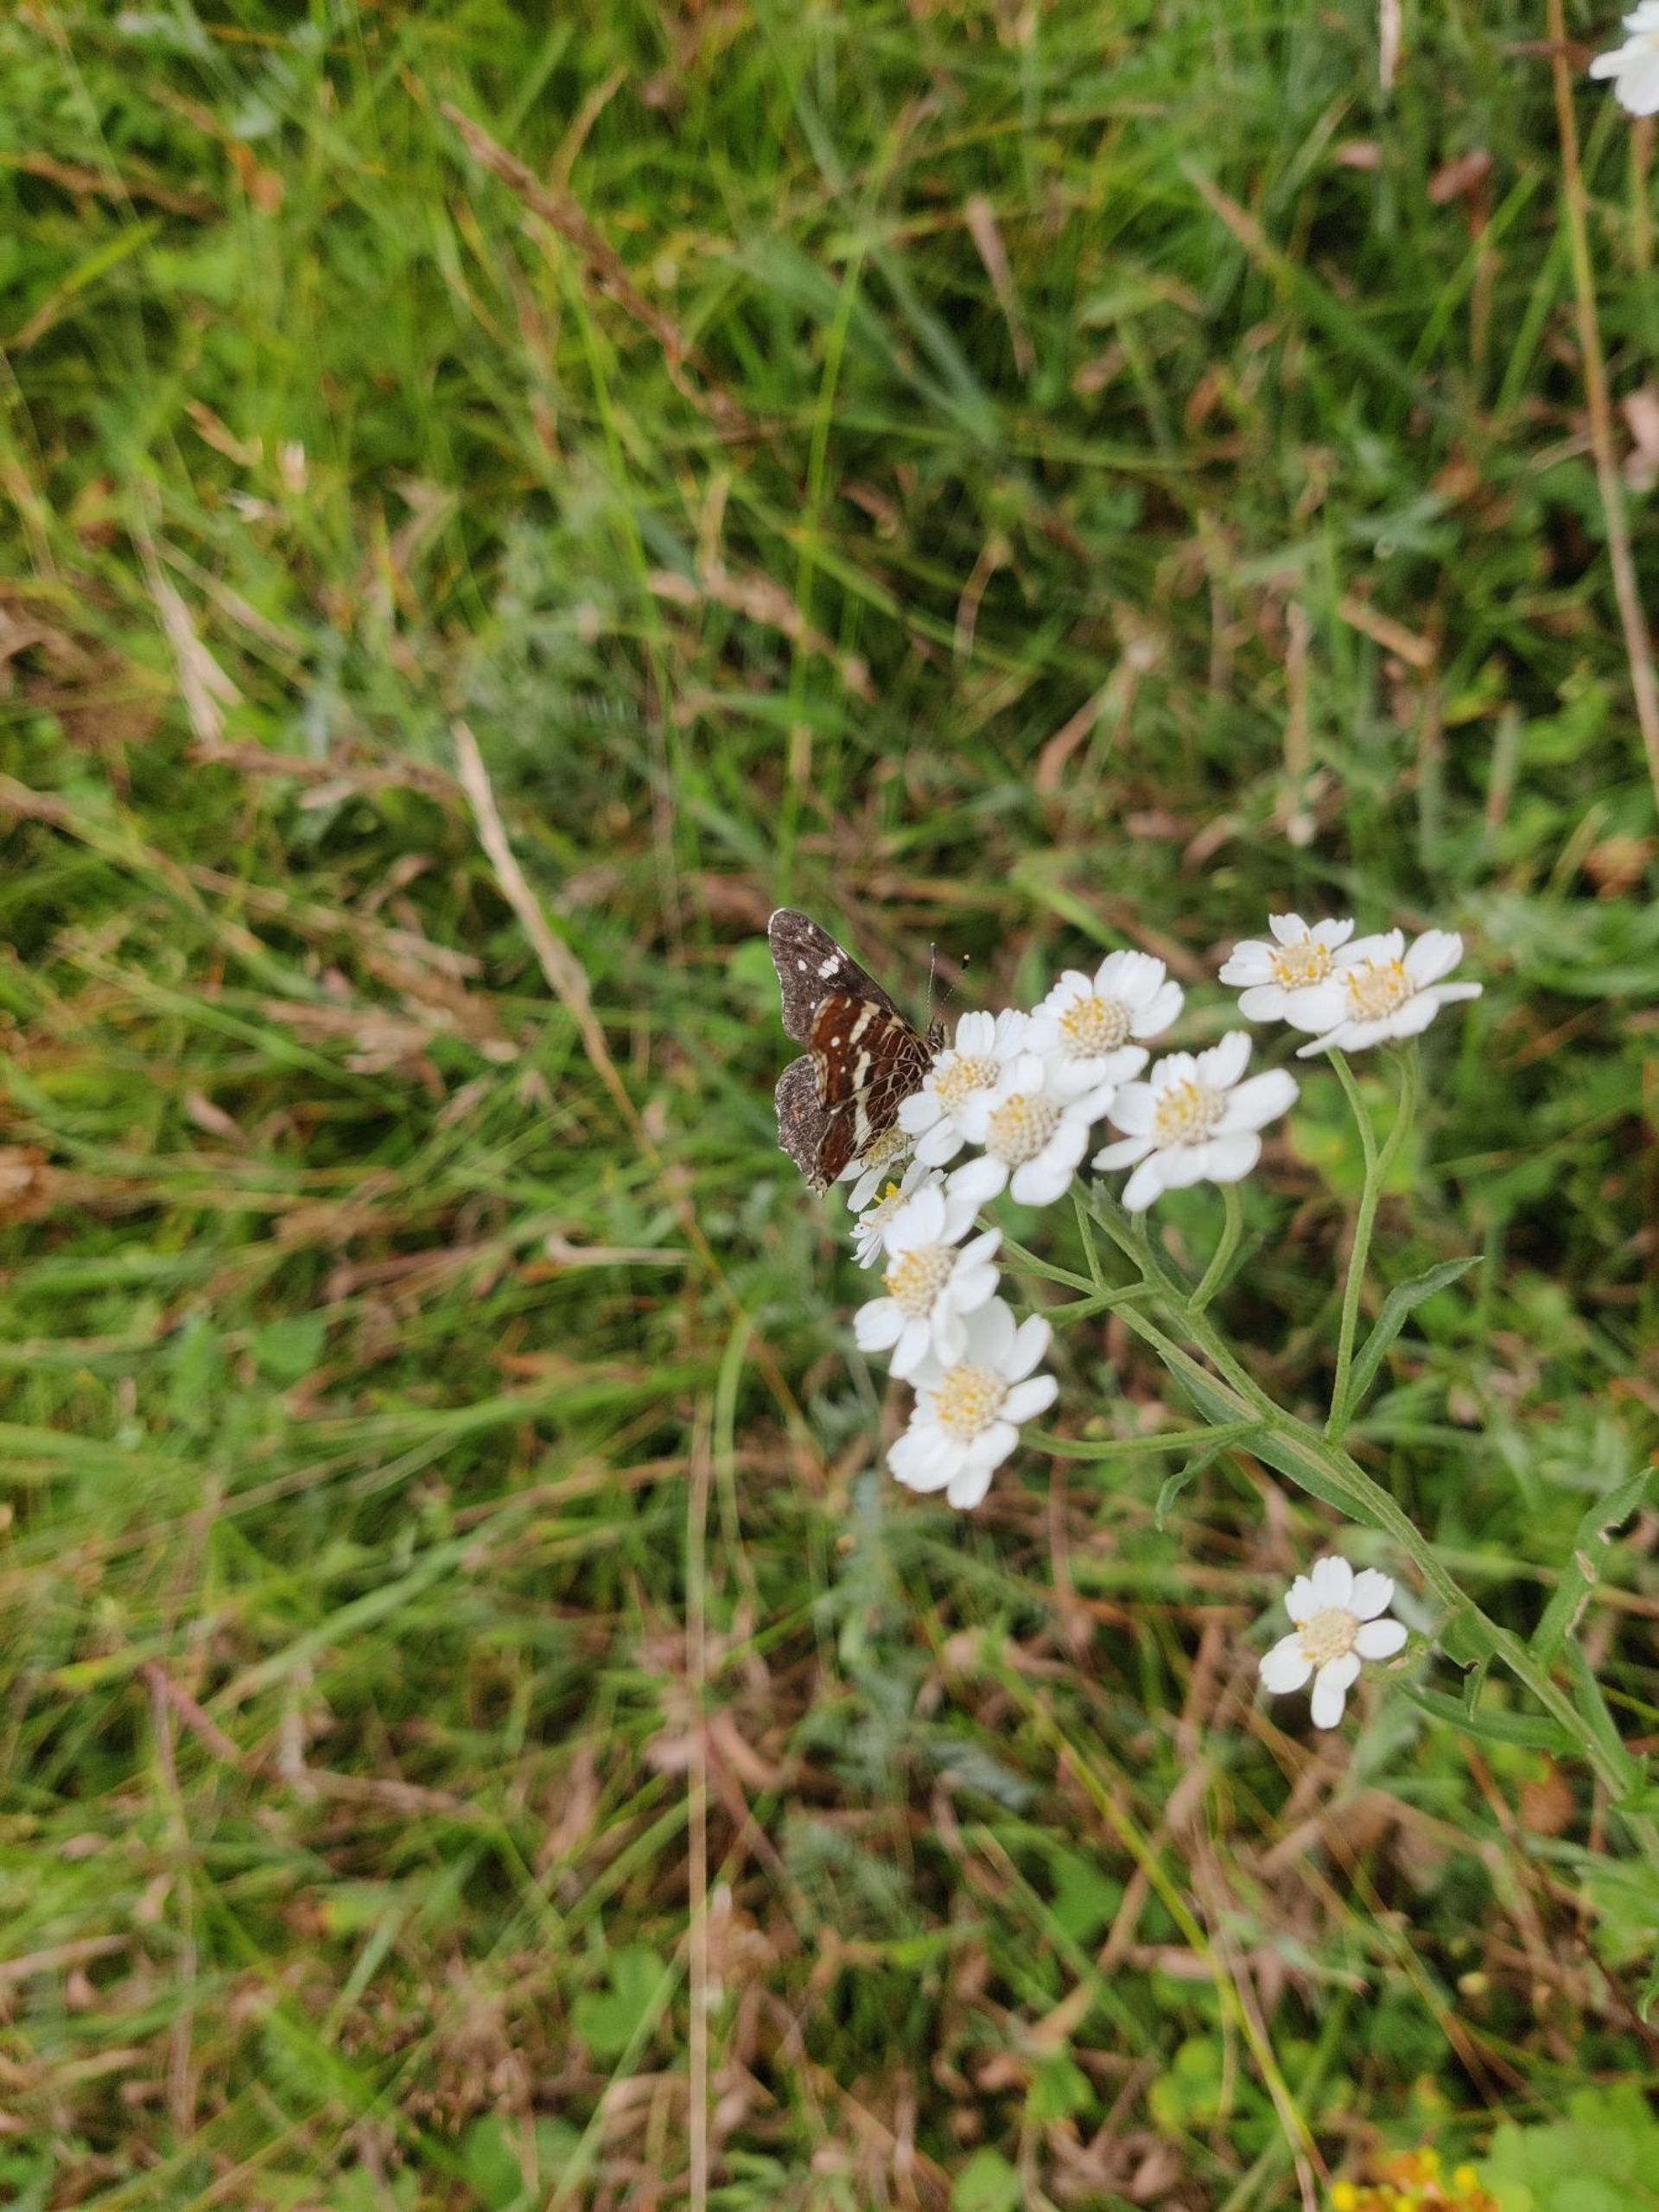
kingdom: Animalia
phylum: Arthropoda
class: Insecta
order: Lepidoptera
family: Nymphalidae
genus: Araschnia
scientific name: Araschnia levana
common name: Nældesommerfugl
